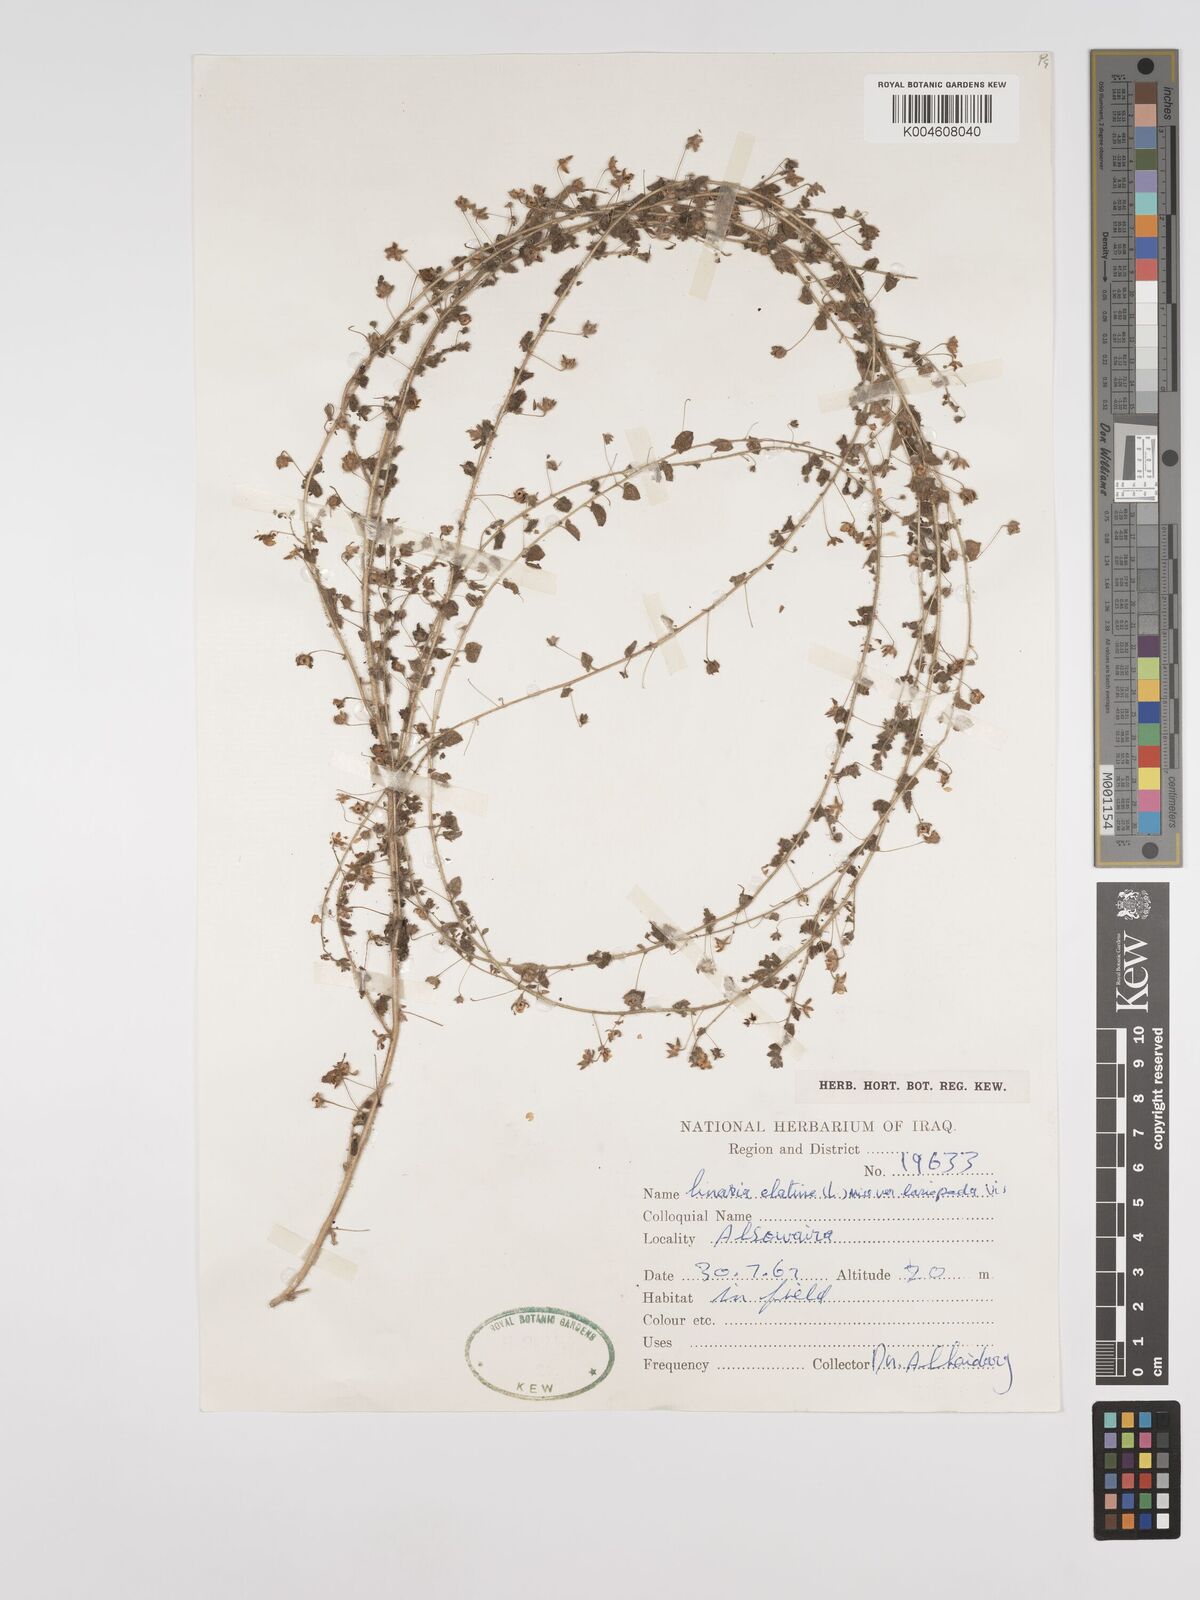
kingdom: Plantae
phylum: Tracheophyta
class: Magnoliopsida
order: Lamiales
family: Plantaginaceae
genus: Kickxia
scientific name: Kickxia elatine
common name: Sharp-leaved fluellen
